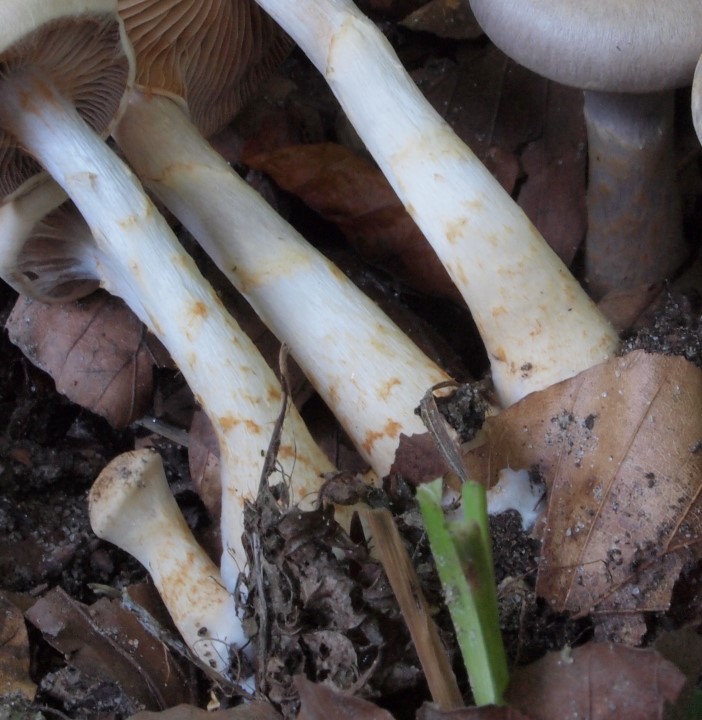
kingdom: Fungi
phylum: Basidiomycota
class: Agaricomycetes
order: Agaricales
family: Cortinariaceae
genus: Cortinarius
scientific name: Cortinarius
